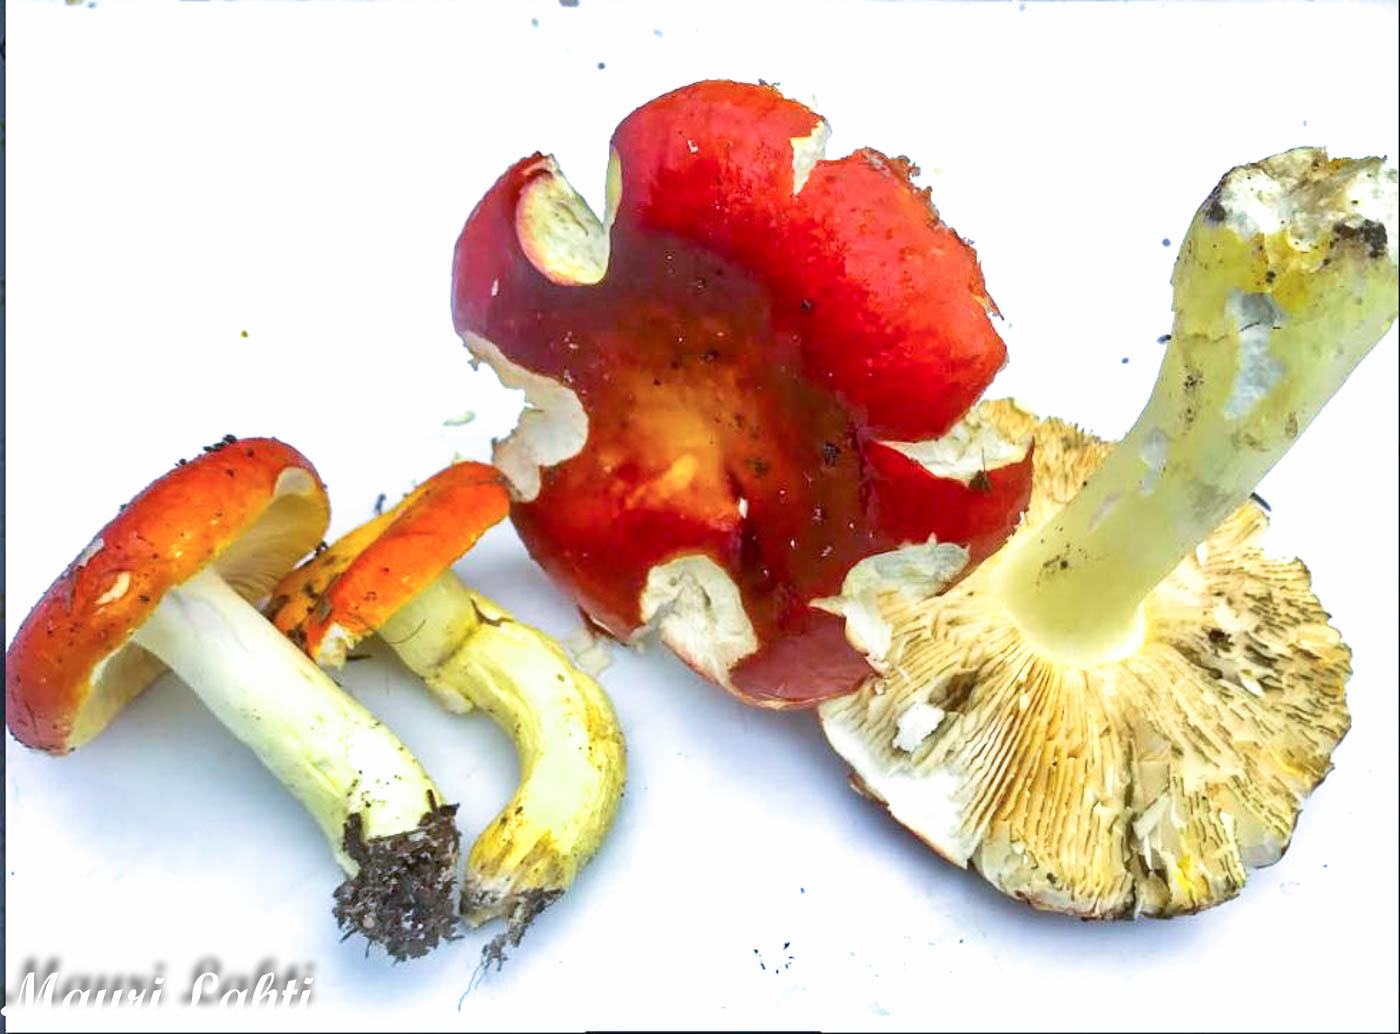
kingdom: Fungi
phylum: Basidiomycota
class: Agaricomycetes
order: Russulales
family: Russulaceae
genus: Russula
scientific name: Russula aurea
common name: Gilded brittlegill
